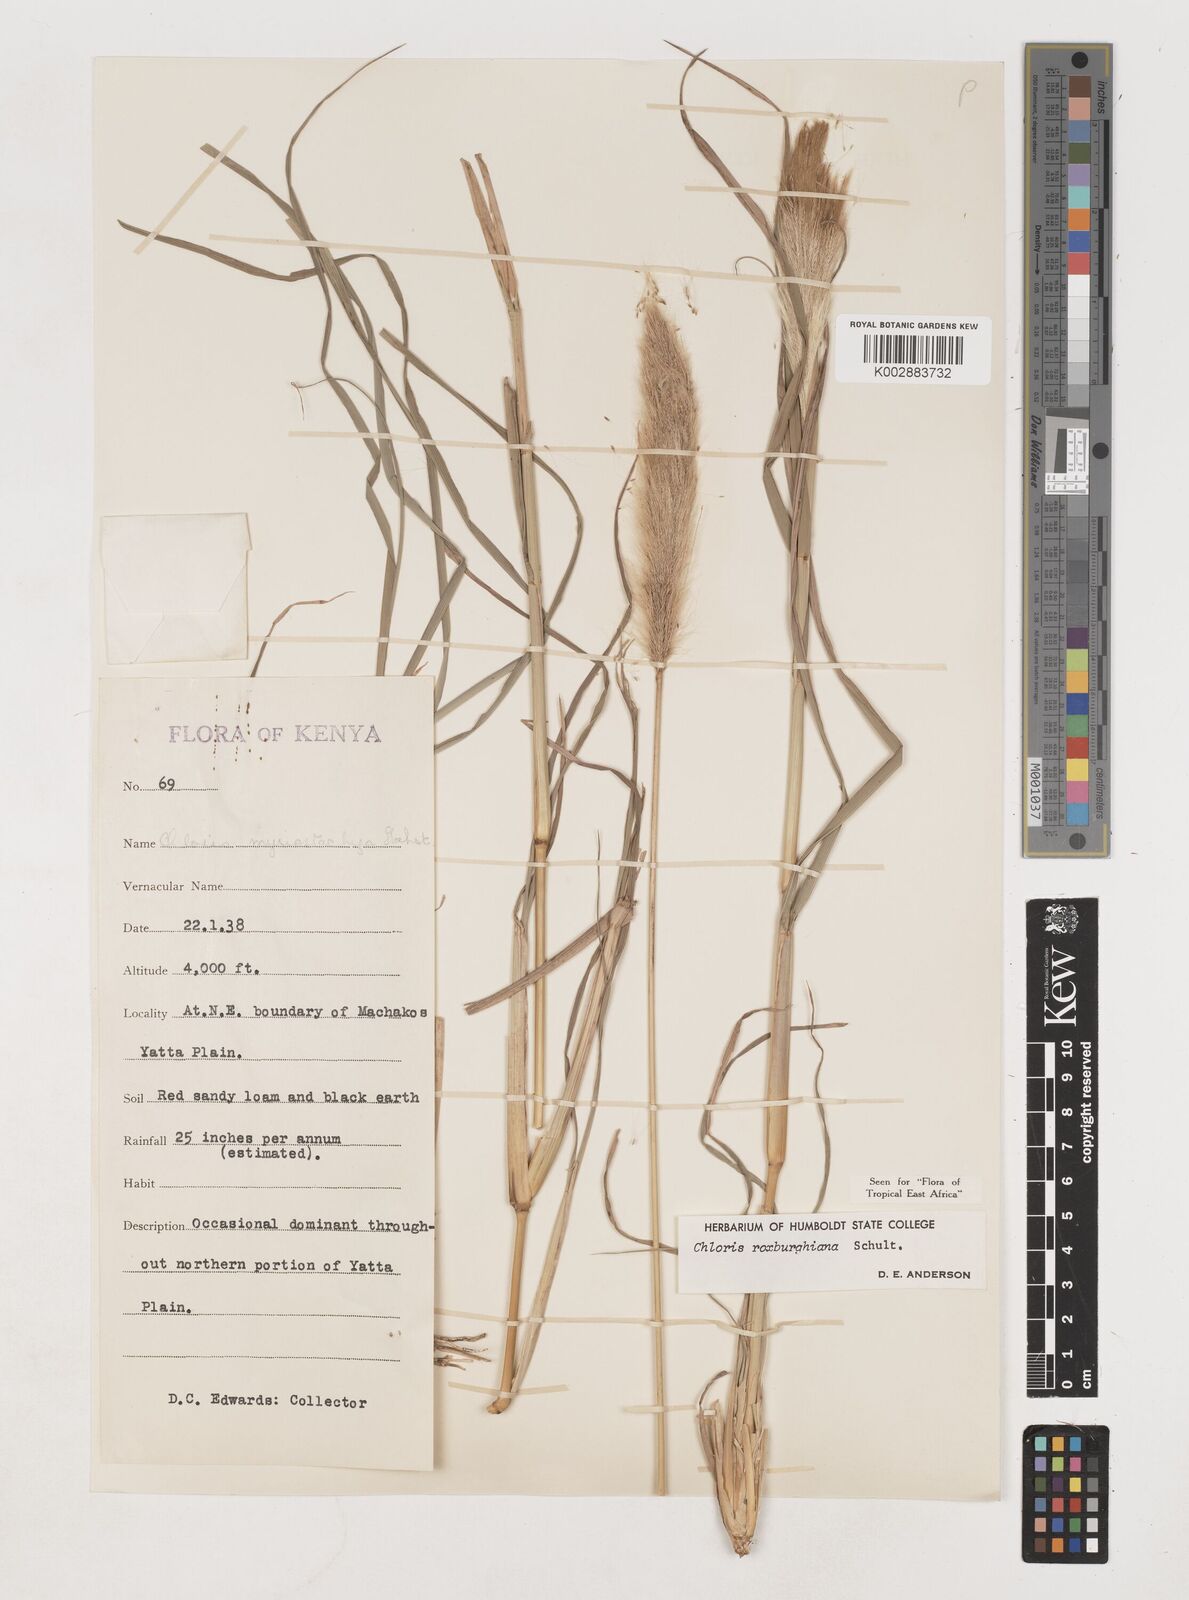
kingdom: Plantae
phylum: Tracheophyta
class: Liliopsida
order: Poales
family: Poaceae
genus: Tetrapogon
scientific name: Tetrapogon roxburghiana
